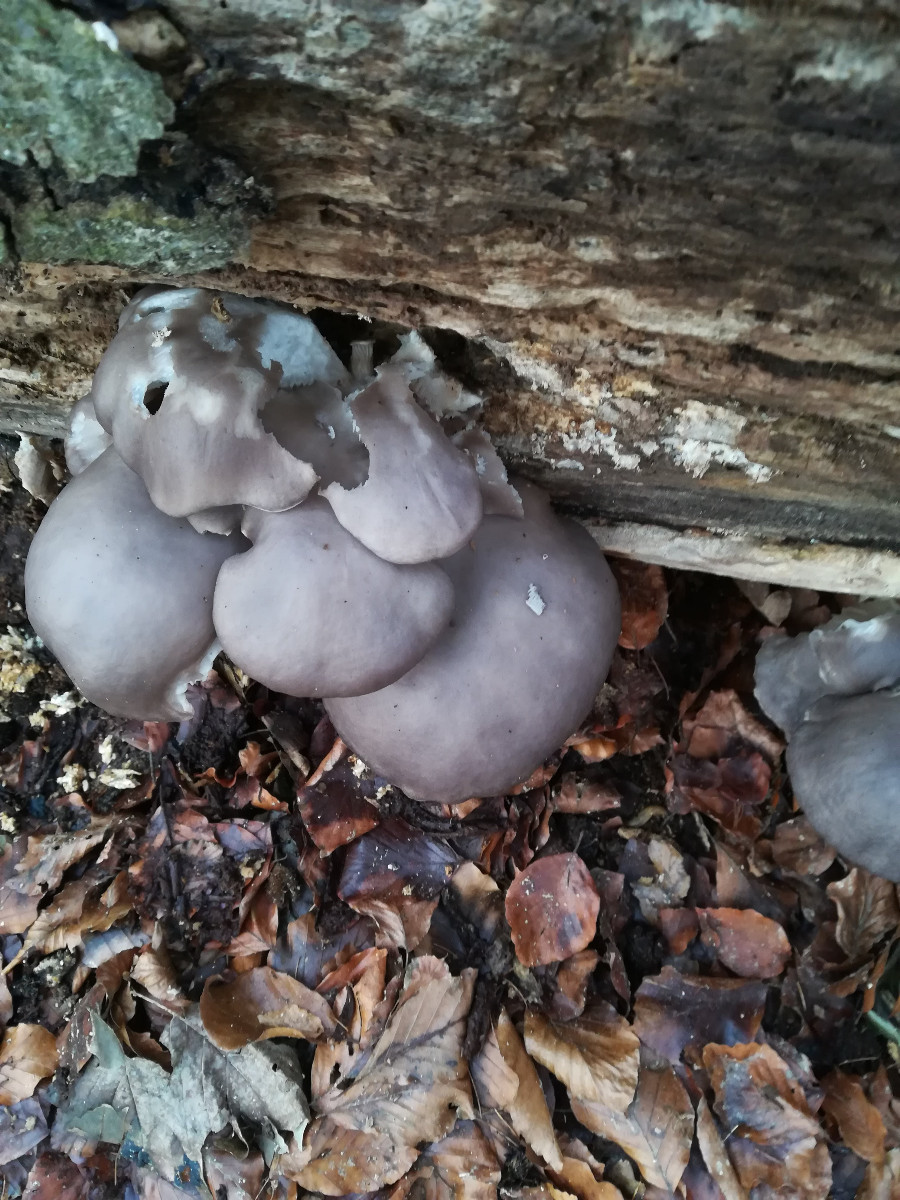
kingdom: Fungi
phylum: Basidiomycota
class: Agaricomycetes
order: Agaricales
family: Pleurotaceae
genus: Pleurotus
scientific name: Pleurotus ostreatus
